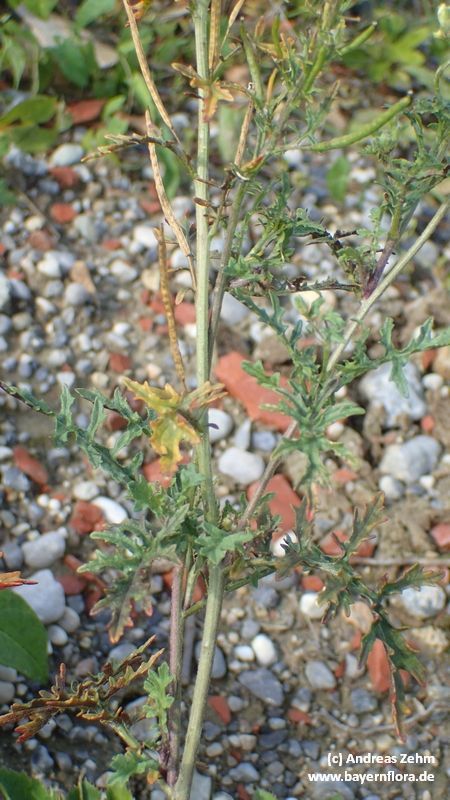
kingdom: Plantae
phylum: Tracheophyta
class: Magnoliopsida
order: Brassicales
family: Brassicaceae
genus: Erucastrum
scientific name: Erucastrum nasturtiifolium
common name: Watercress-leaf rocket
